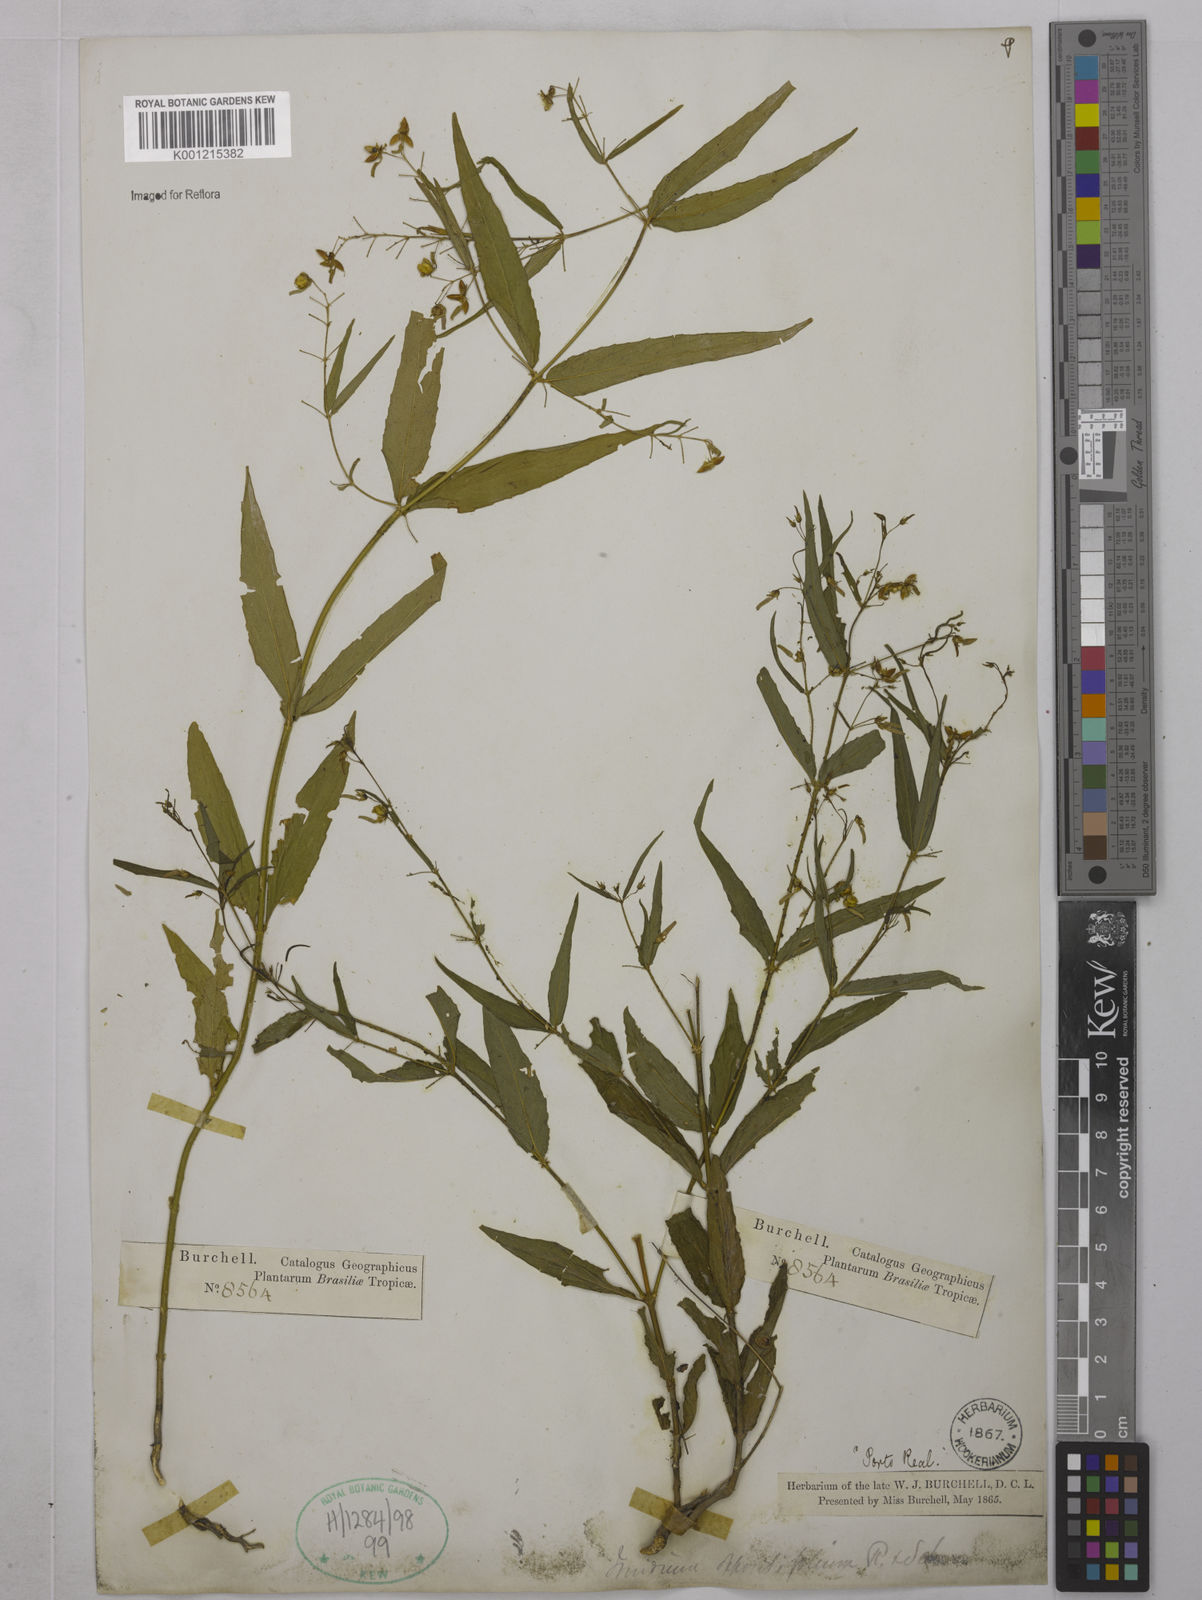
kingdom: Plantae
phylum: Tracheophyta
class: Magnoliopsida
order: Malpighiales
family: Violaceae
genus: Pombalia
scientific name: Pombalia oppositifolia
